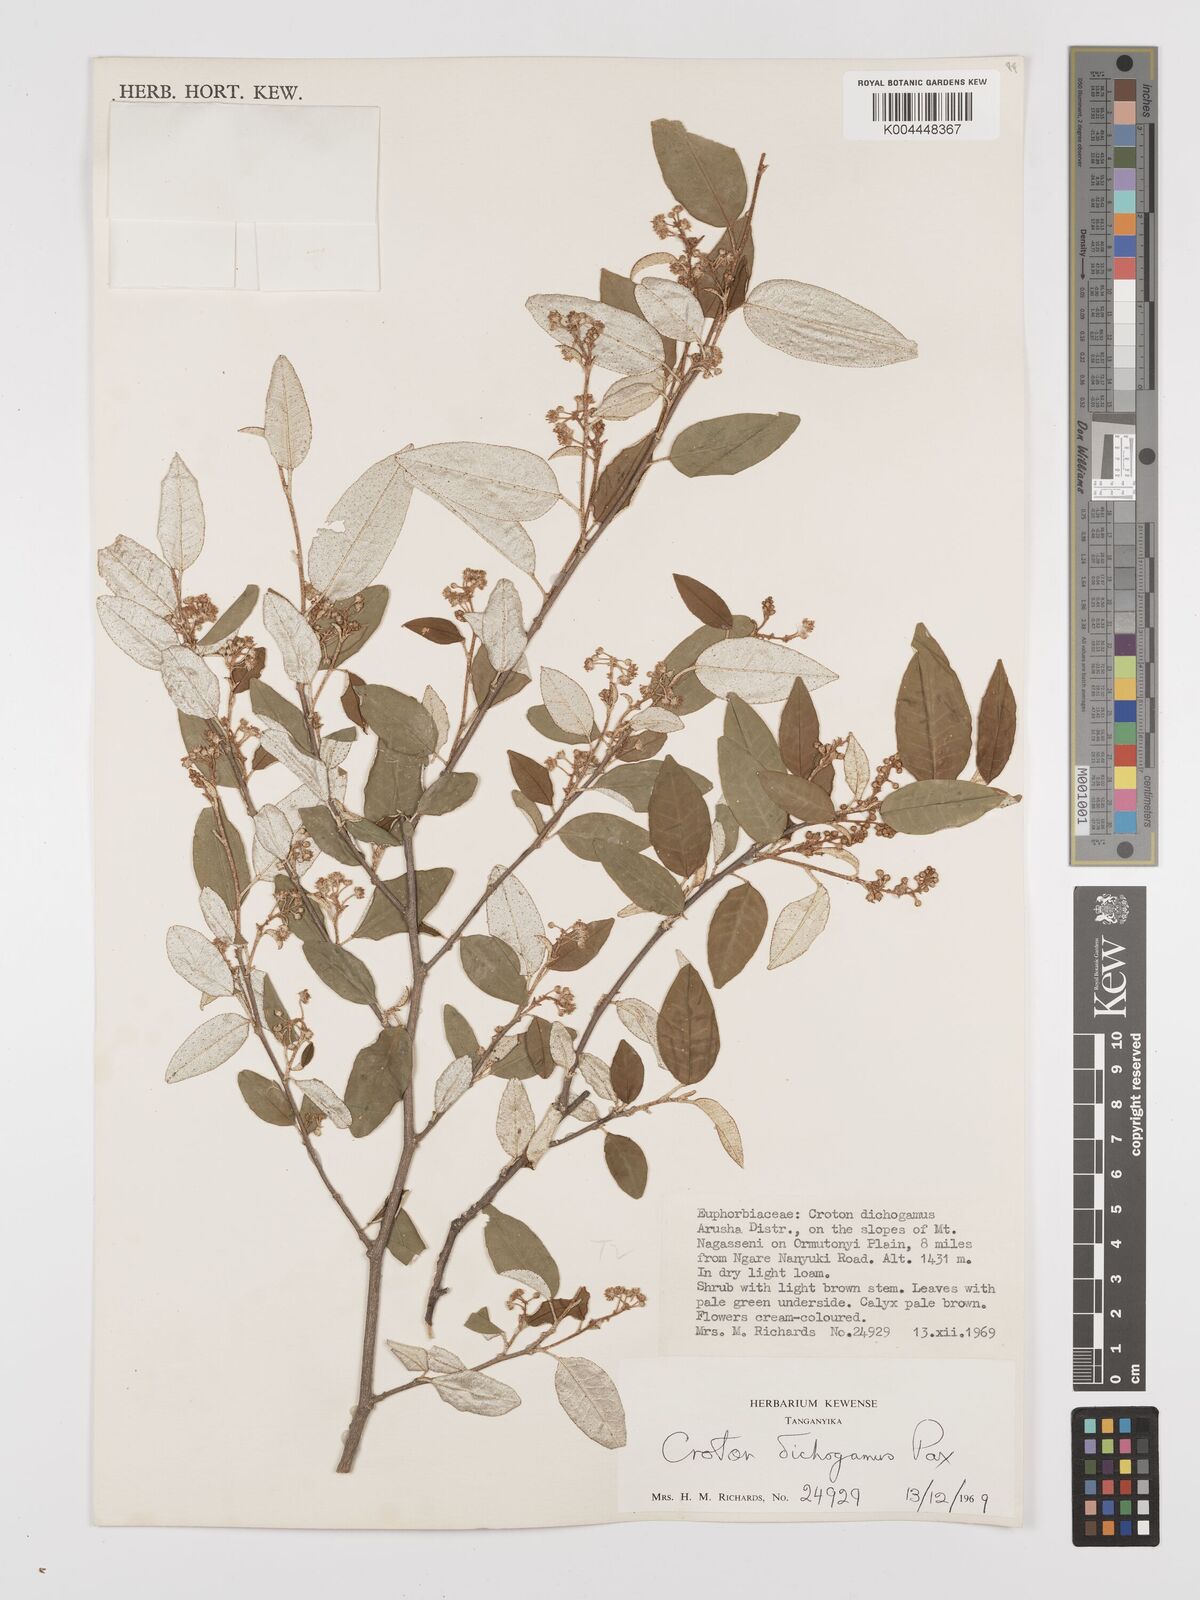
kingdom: Plantae
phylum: Tracheophyta
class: Magnoliopsida
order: Malpighiales
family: Euphorbiaceae
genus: Croton
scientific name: Croton dichogamus
